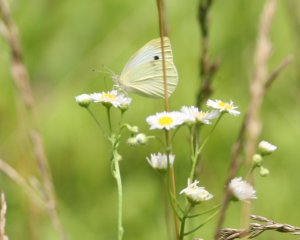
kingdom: Animalia
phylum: Arthropoda
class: Insecta
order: Lepidoptera
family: Pieridae
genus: Pieris
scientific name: Pieris rapae
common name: Cabbage White
